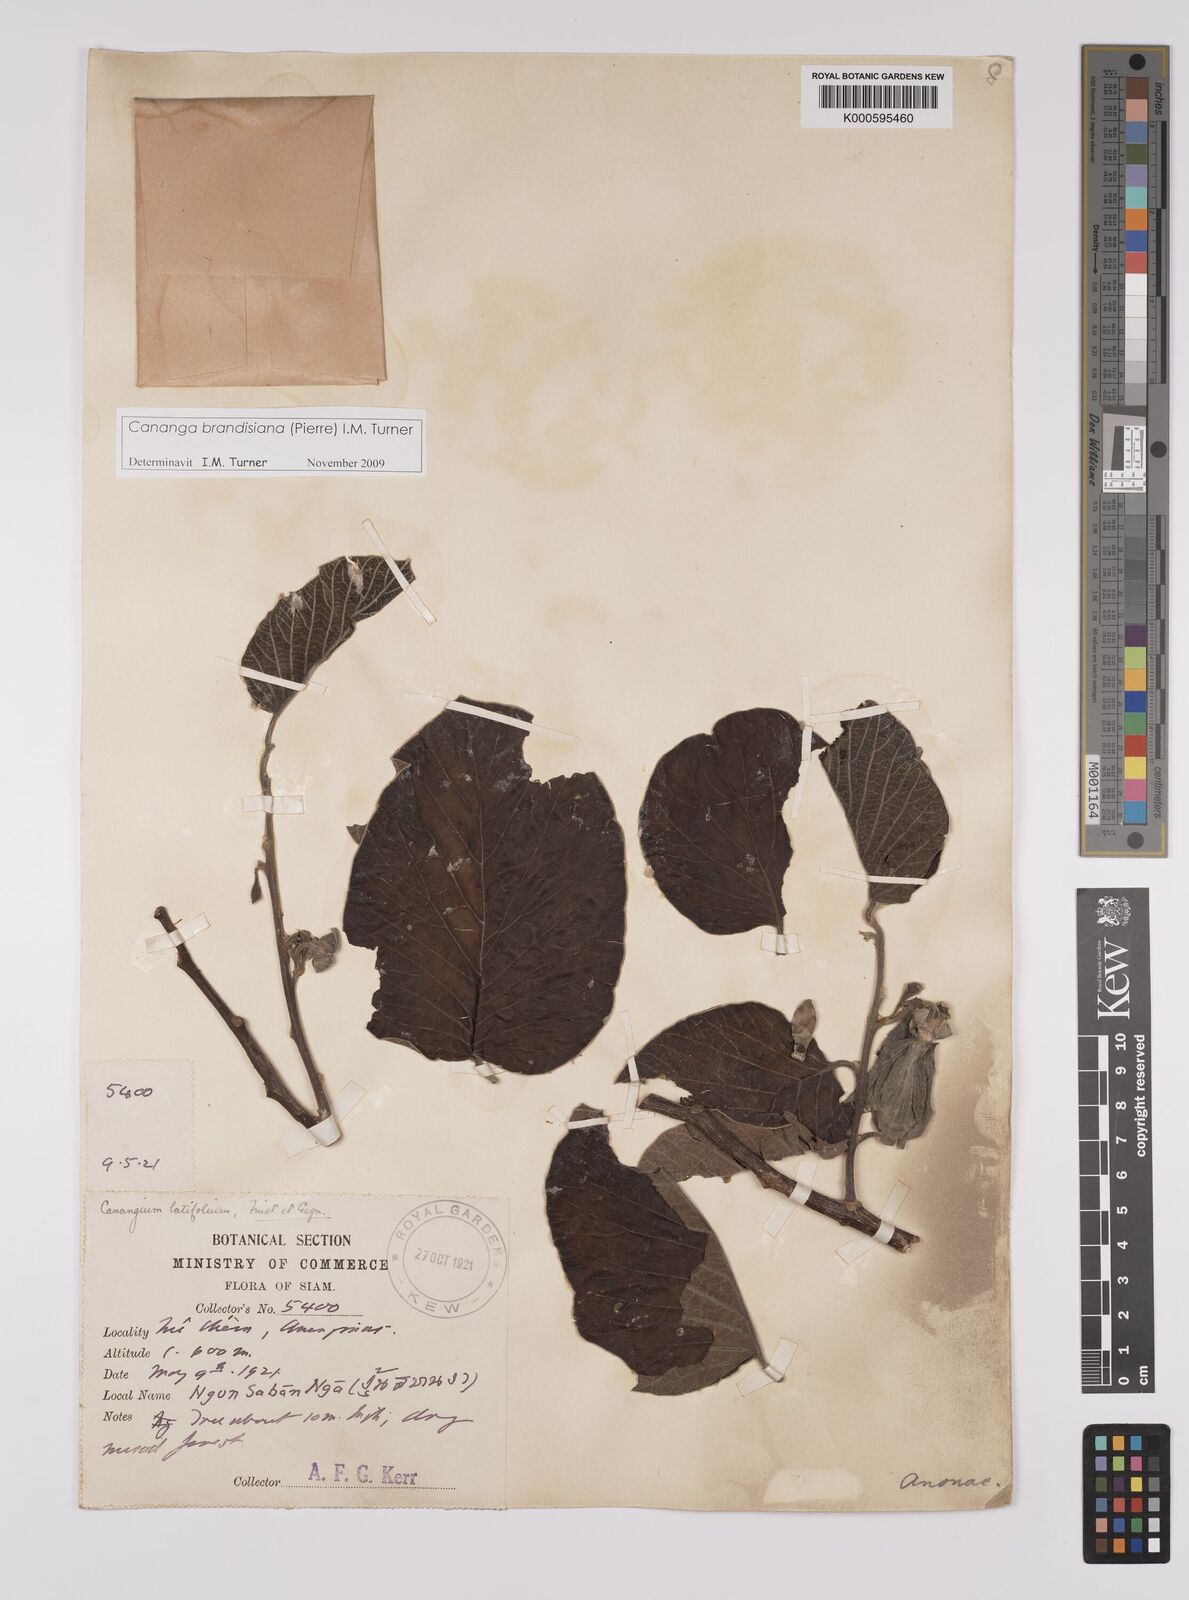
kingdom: Plantae
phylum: Tracheophyta
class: Magnoliopsida
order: Magnoliales
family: Annonaceae
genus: Cananga
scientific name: Cananga brandisiana
